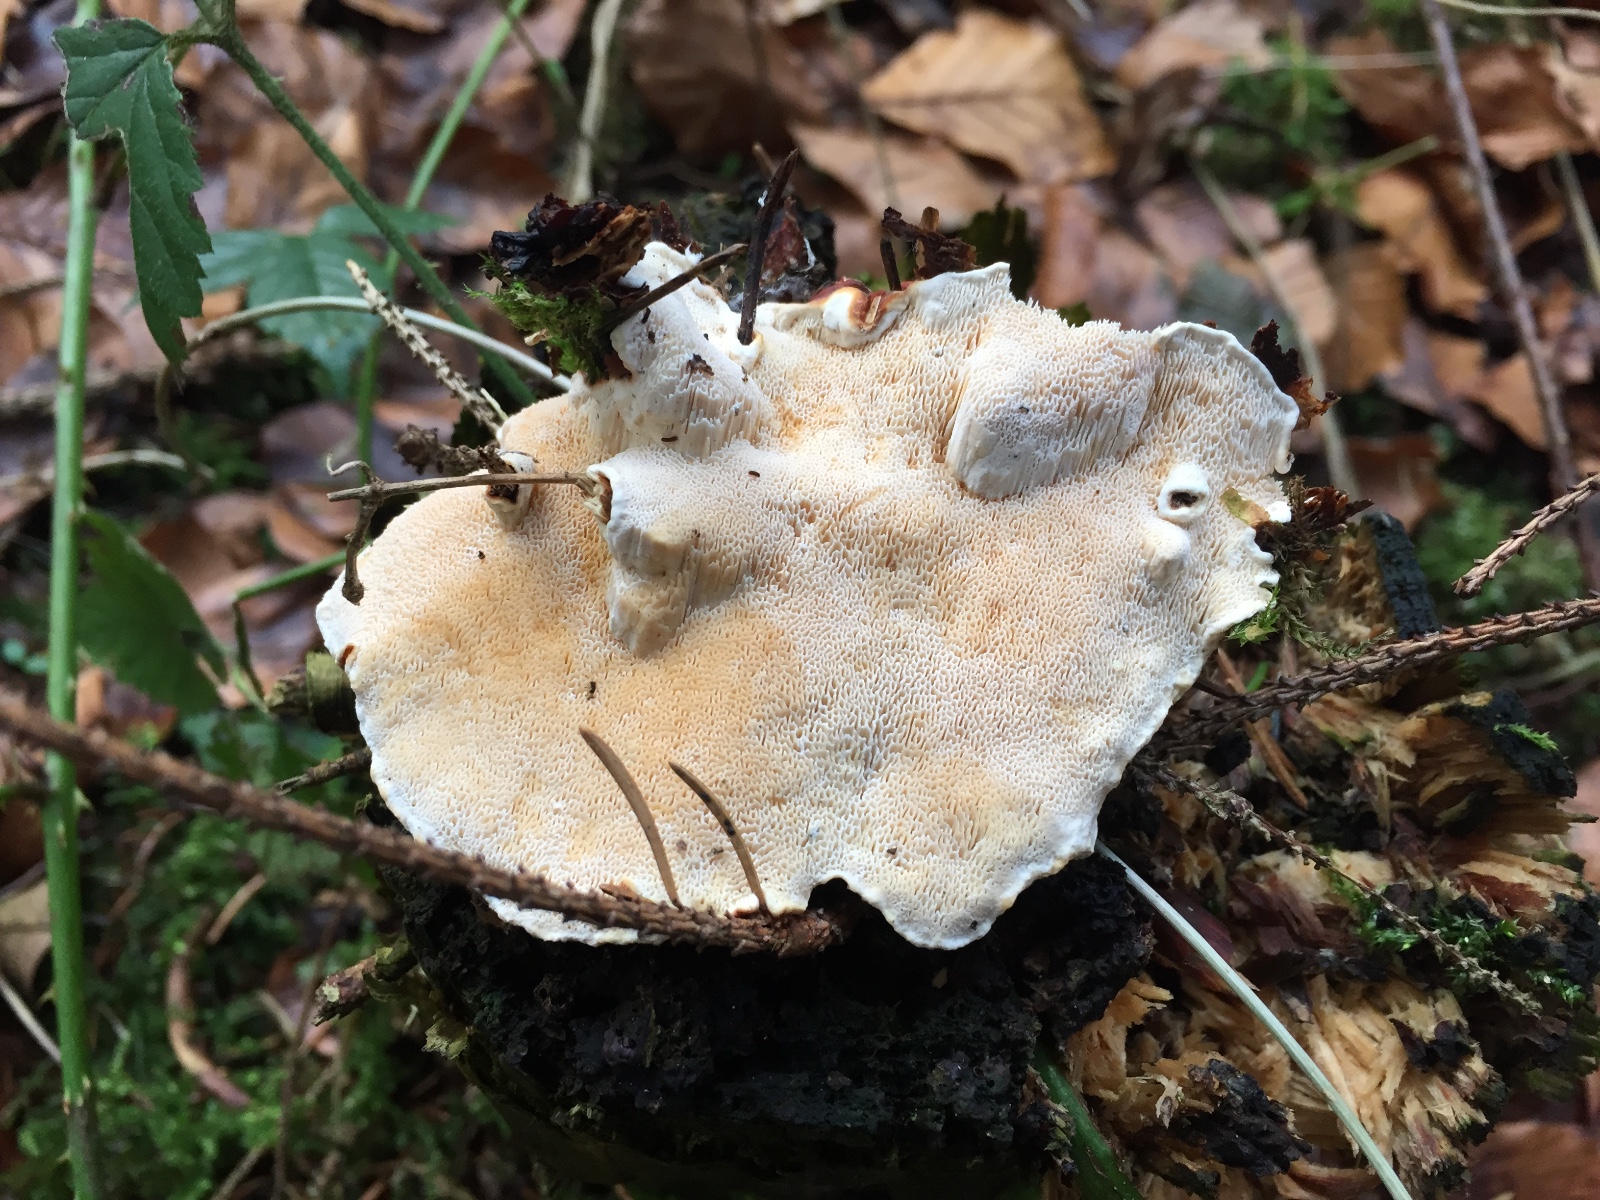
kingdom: Fungi
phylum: Basidiomycota
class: Agaricomycetes
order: Russulales
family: Bondarzewiaceae
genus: Heterobasidion
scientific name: Heterobasidion annosum
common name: almindelig rodfordærver
